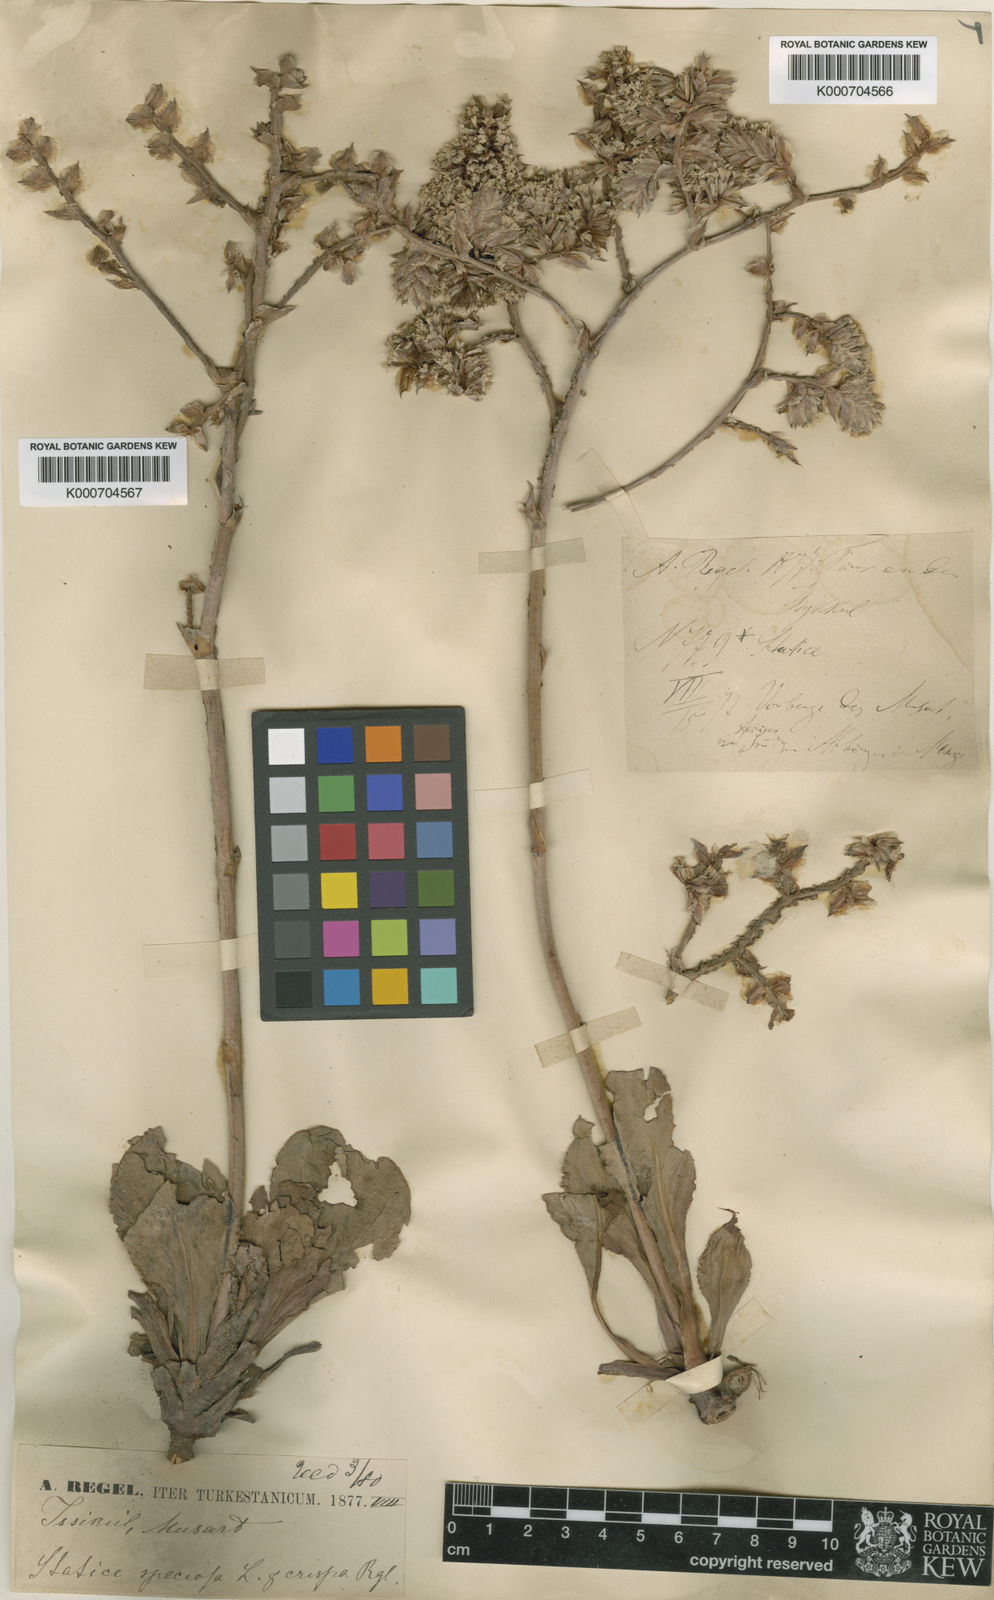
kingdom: Plantae
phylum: Tracheophyta
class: Magnoliopsida
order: Caryophyllales
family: Plumbaginaceae
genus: Goniolimon
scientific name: Goniolimon speciosum
